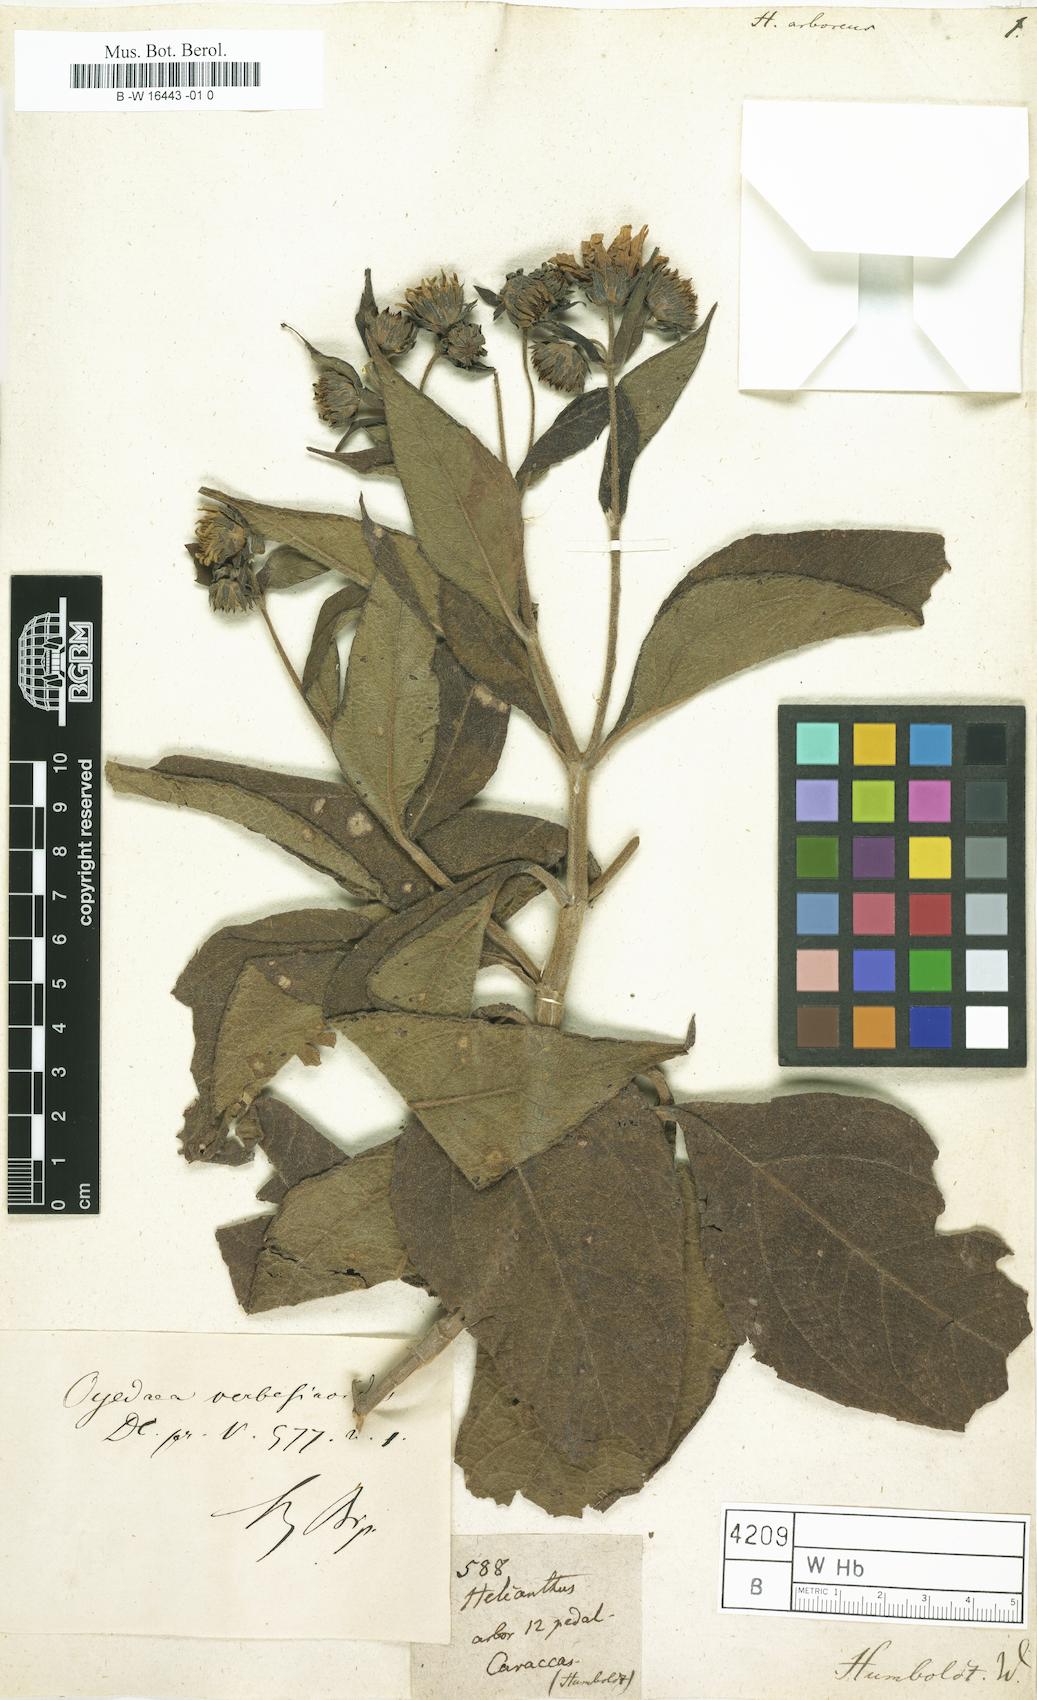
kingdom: Plantae
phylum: Tracheophyta
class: Magnoliopsida
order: Asterales
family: Asteraceae
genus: Helianthus
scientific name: Helianthus
